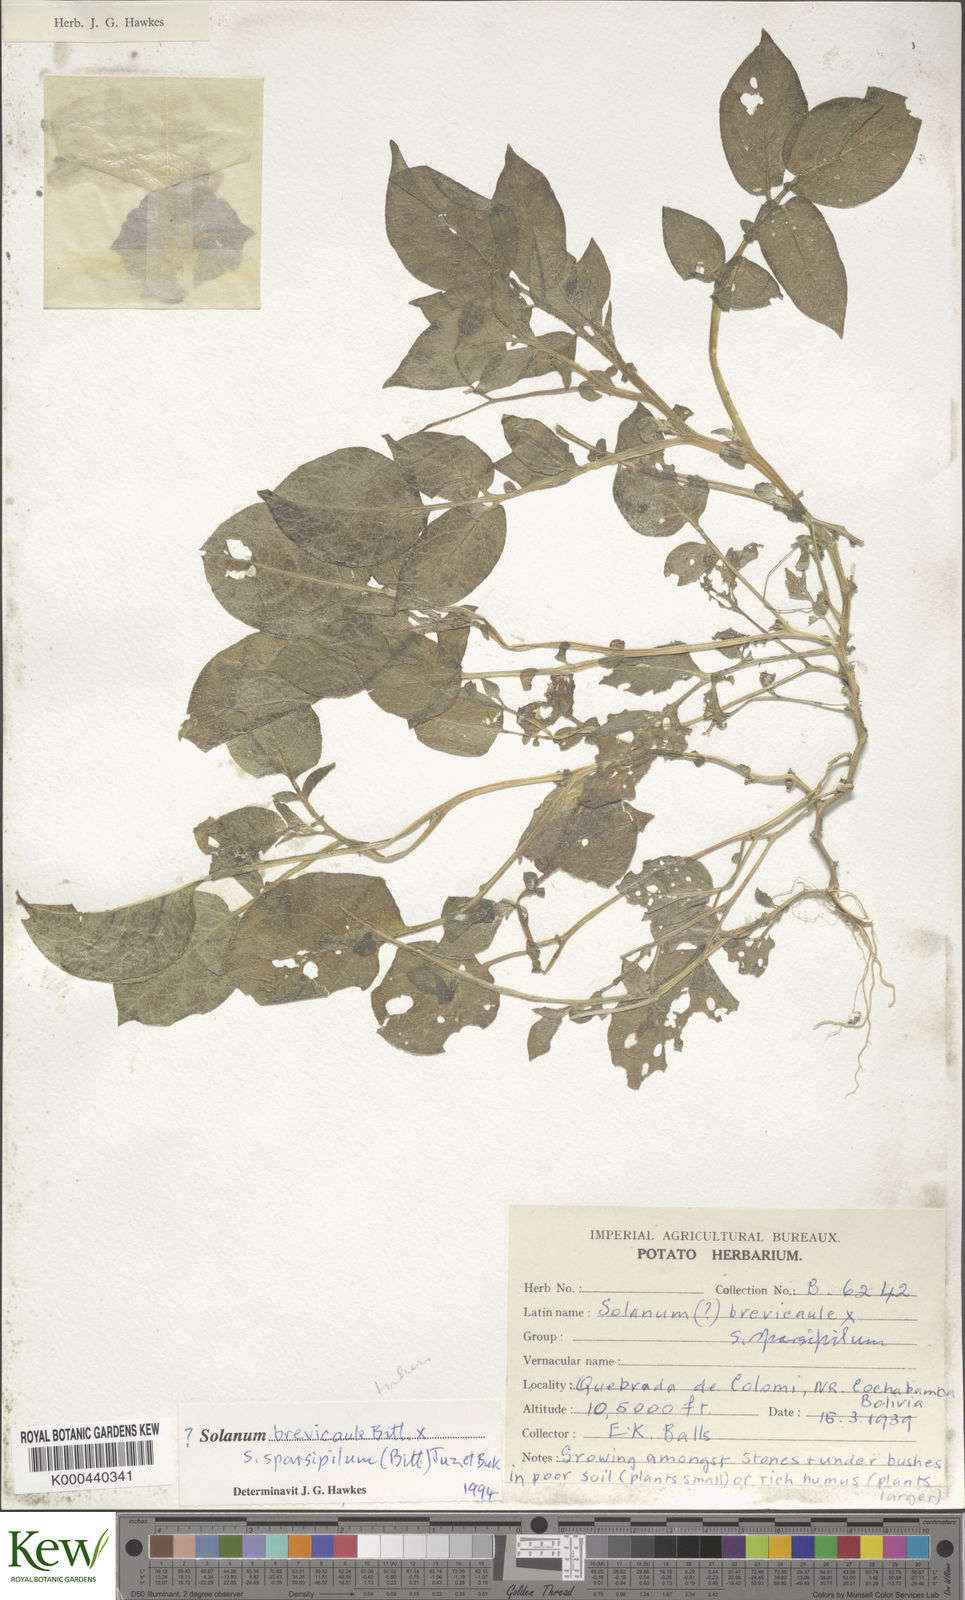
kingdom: Plantae
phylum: Tracheophyta
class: Magnoliopsida
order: Solanales
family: Solanaceae
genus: Solanum
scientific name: Solanum brevicaule
